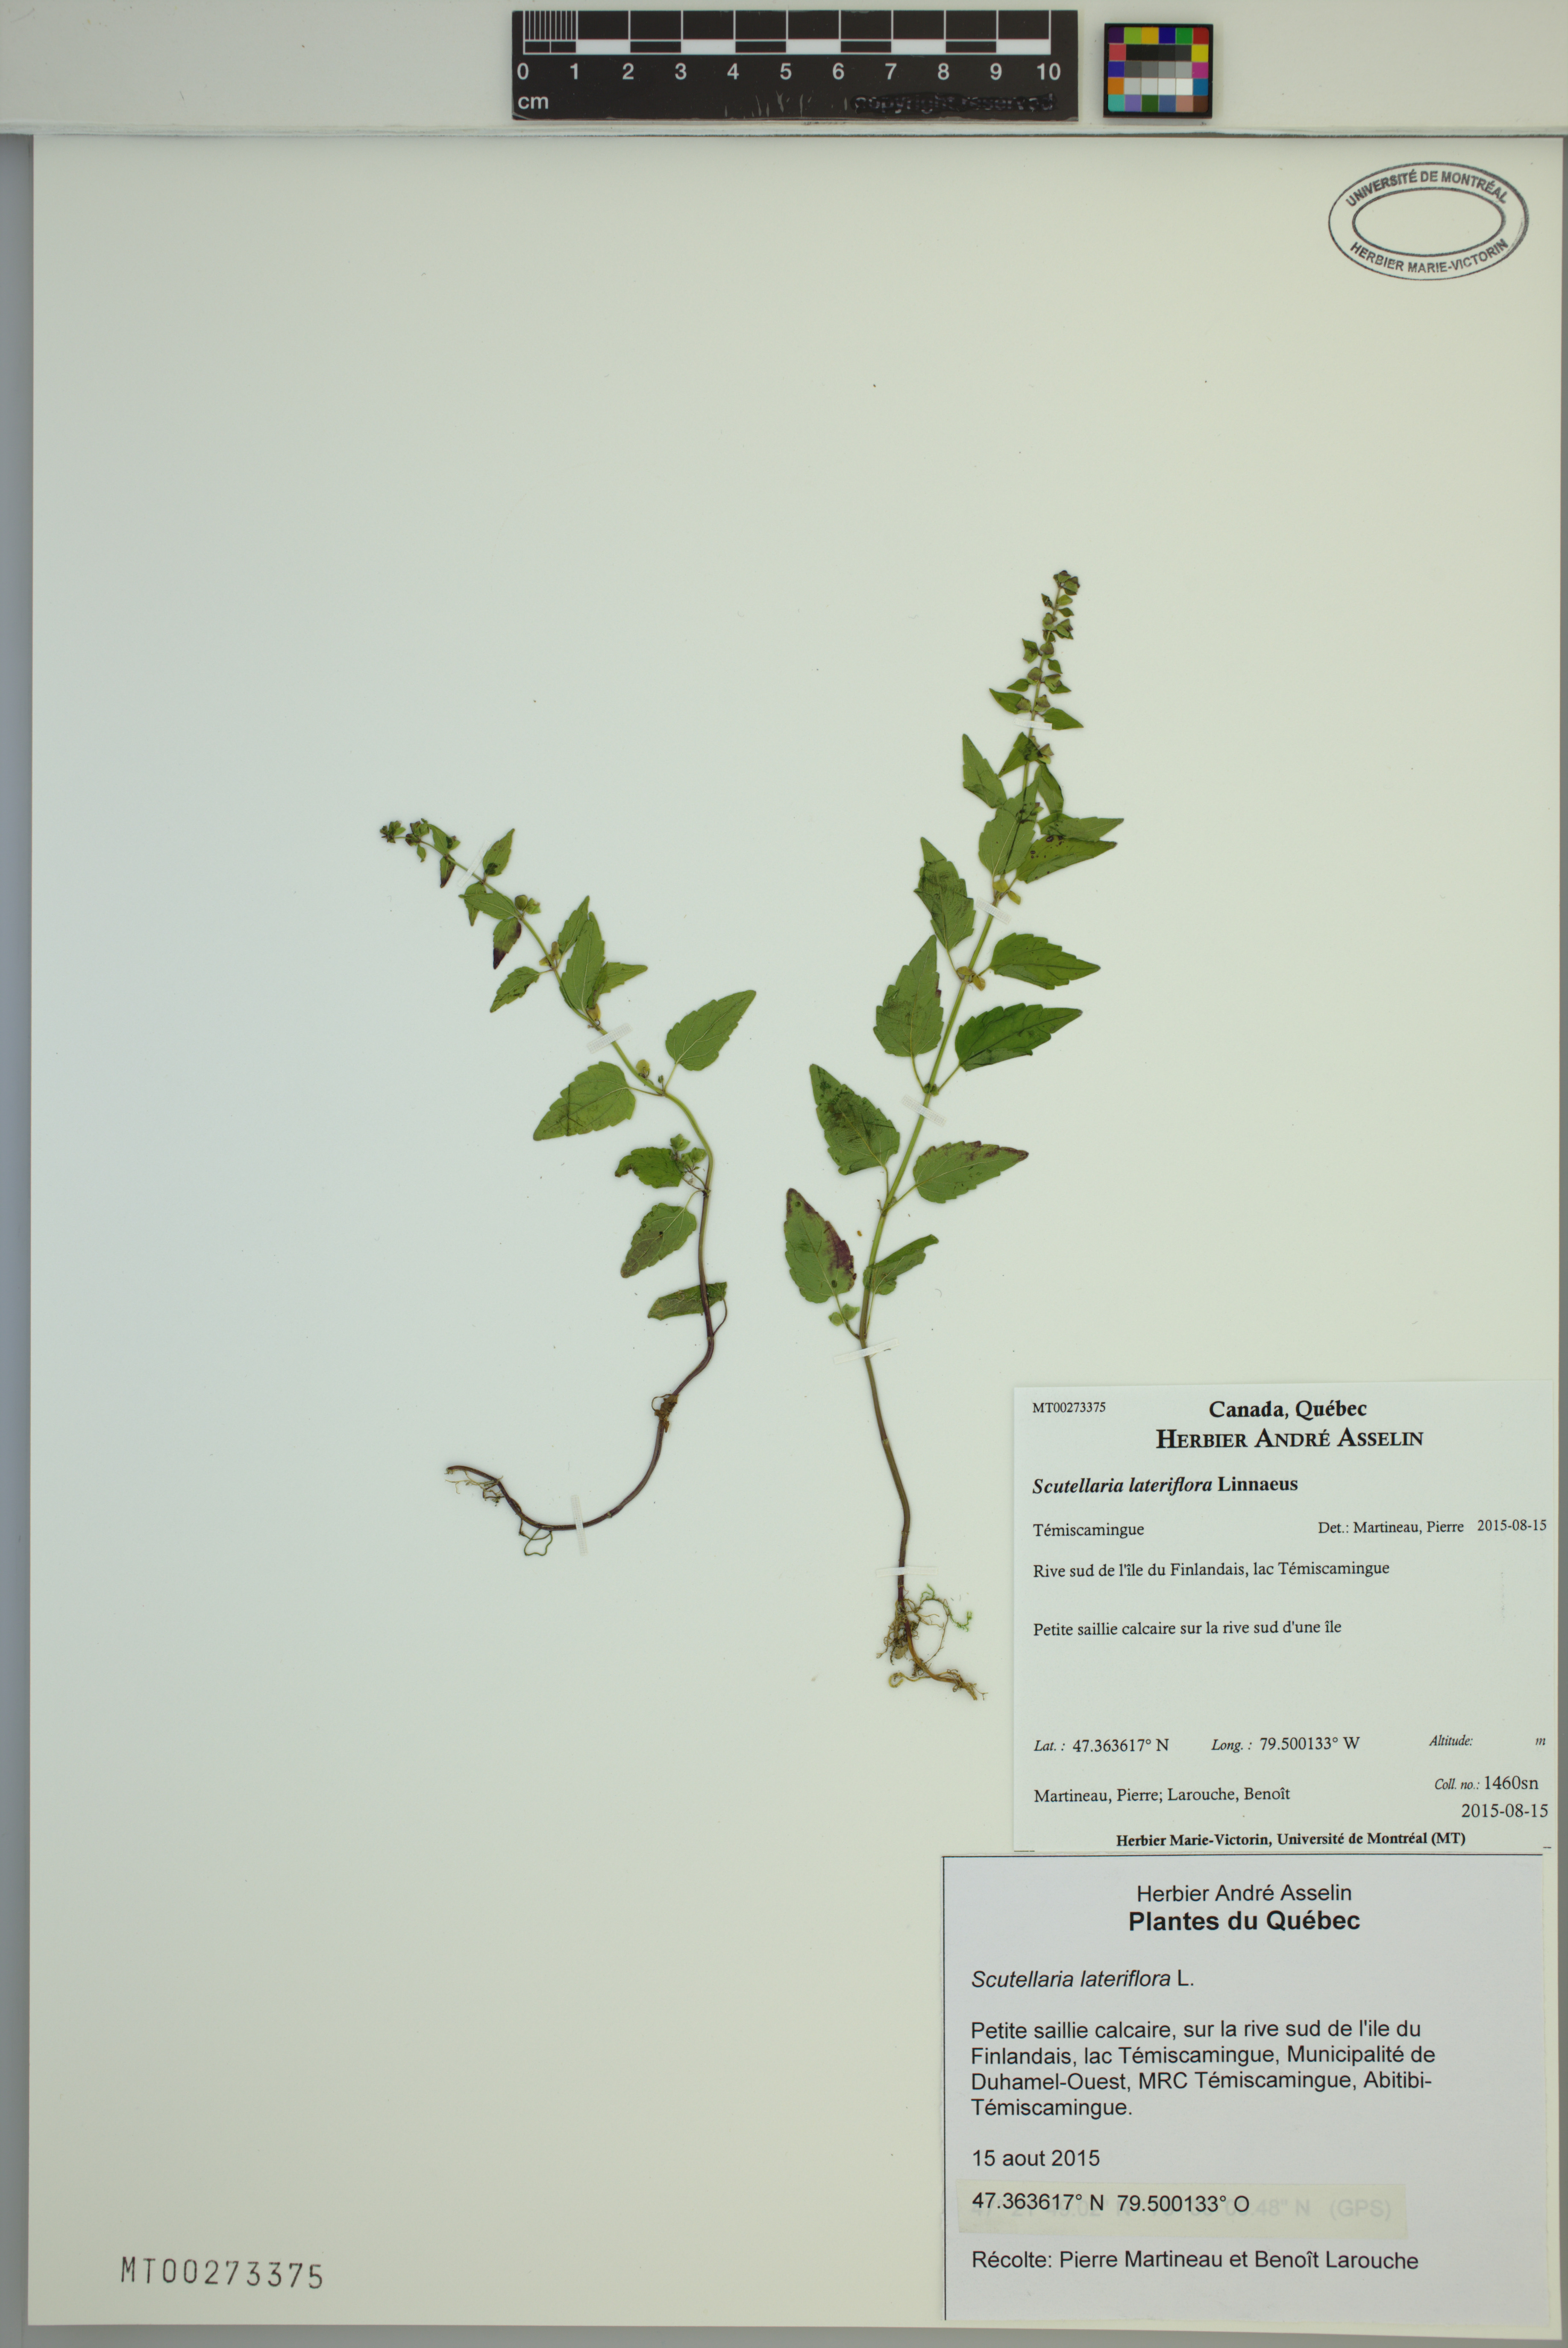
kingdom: Plantae
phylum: Tracheophyta
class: Magnoliopsida
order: Lamiales
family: Lamiaceae
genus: Scutellaria
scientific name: Scutellaria lateriflora
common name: Blue skullcap
